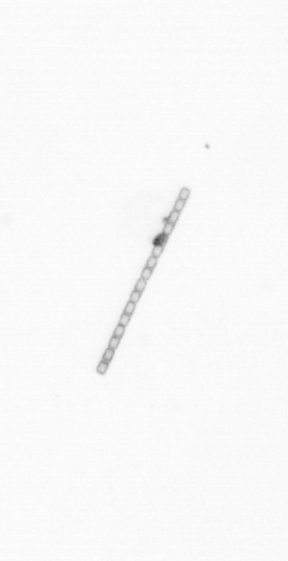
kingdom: Chromista
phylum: Ochrophyta
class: Bacillariophyceae
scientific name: Bacillariophyceae
